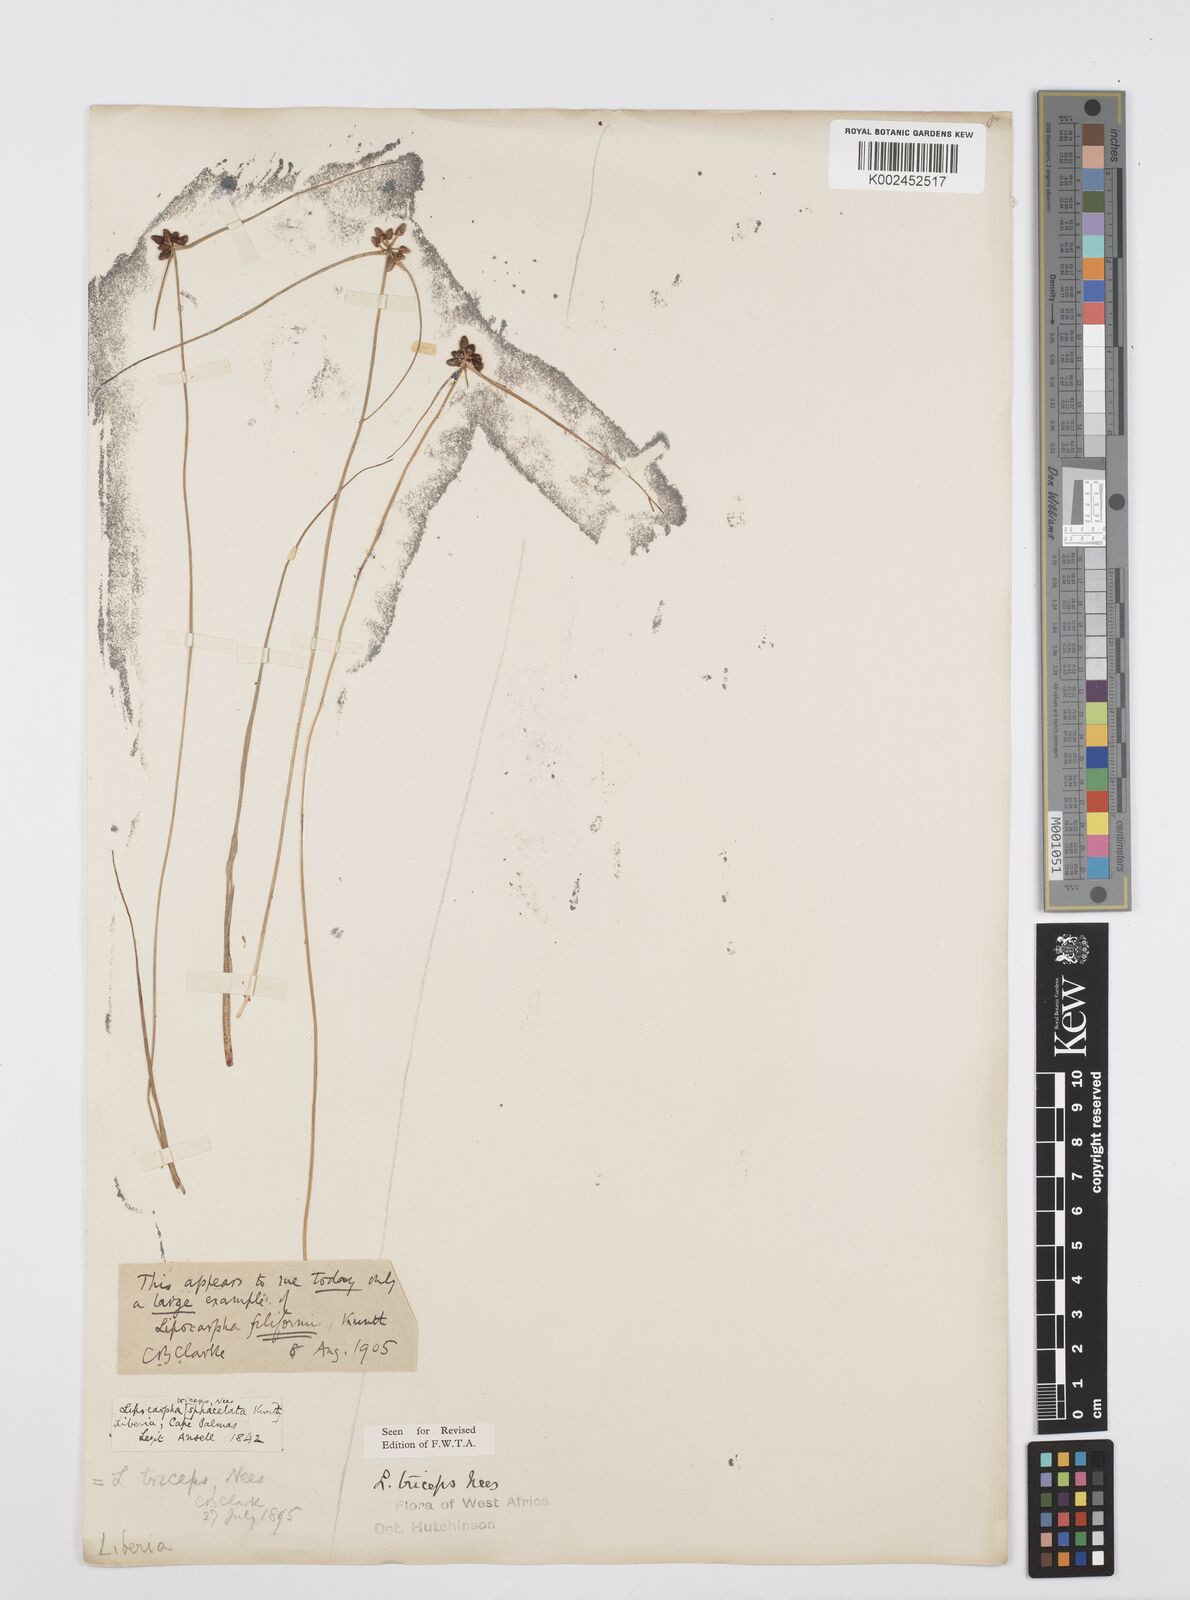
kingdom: Plantae
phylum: Tracheophyta
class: Liliopsida
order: Poales
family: Cyperaceae
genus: Cyperus
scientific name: Cyperus filiformis
